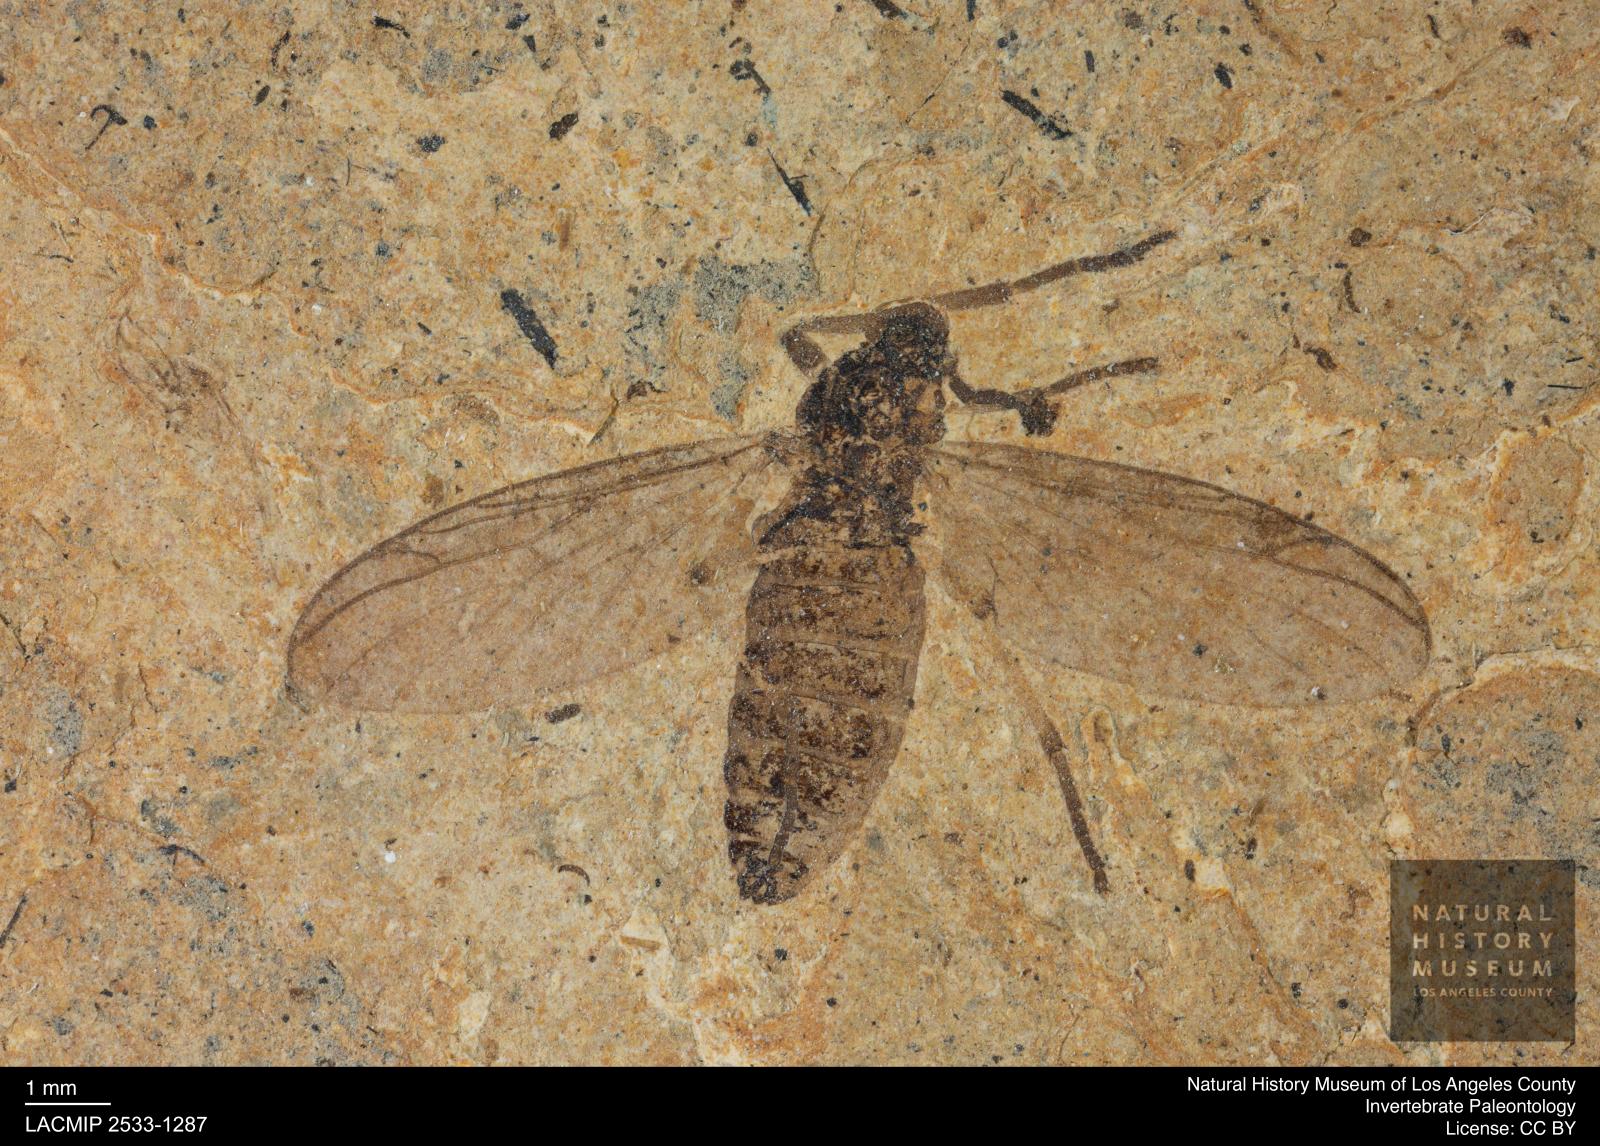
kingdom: Animalia
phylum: Arthropoda
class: Insecta
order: Diptera
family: Bibionidae
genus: Plecia
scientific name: Plecia hypogaea
